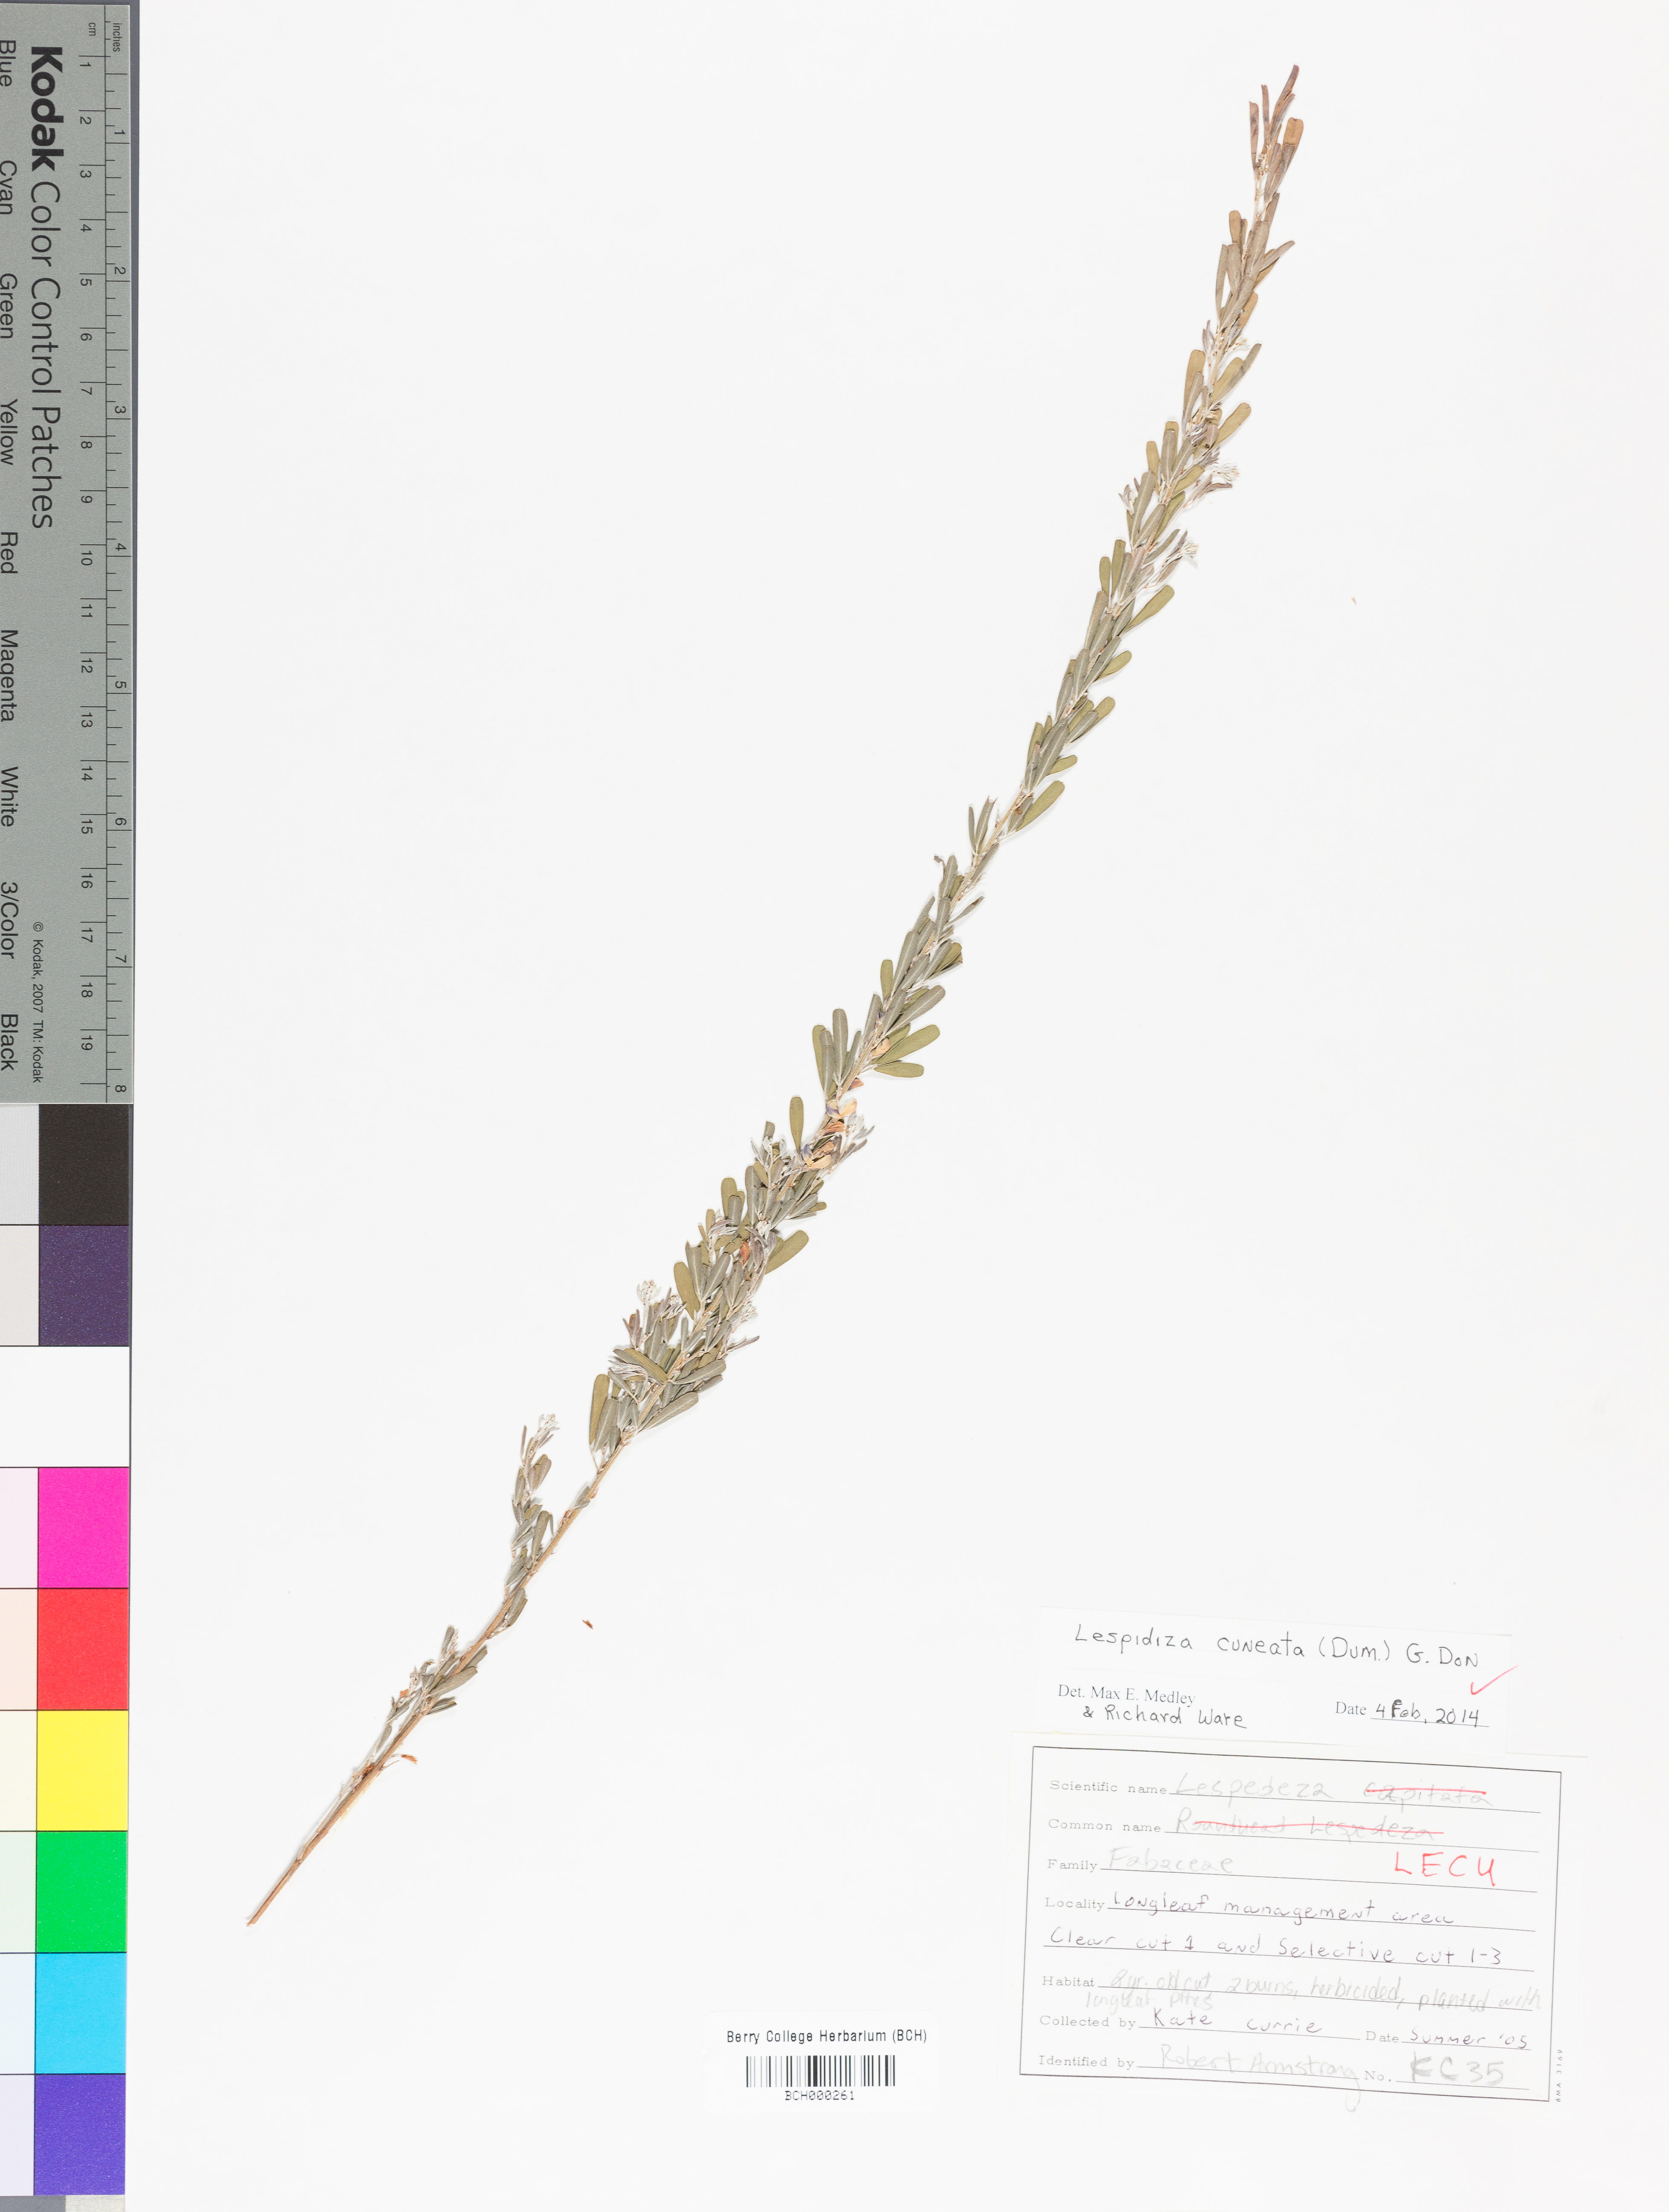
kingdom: Plantae
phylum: Tracheophyta
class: Magnoliopsida
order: Fabales
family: Fabaceae
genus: Lespedeza
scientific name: Lespedeza cuneata
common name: Chinese bush-clover
